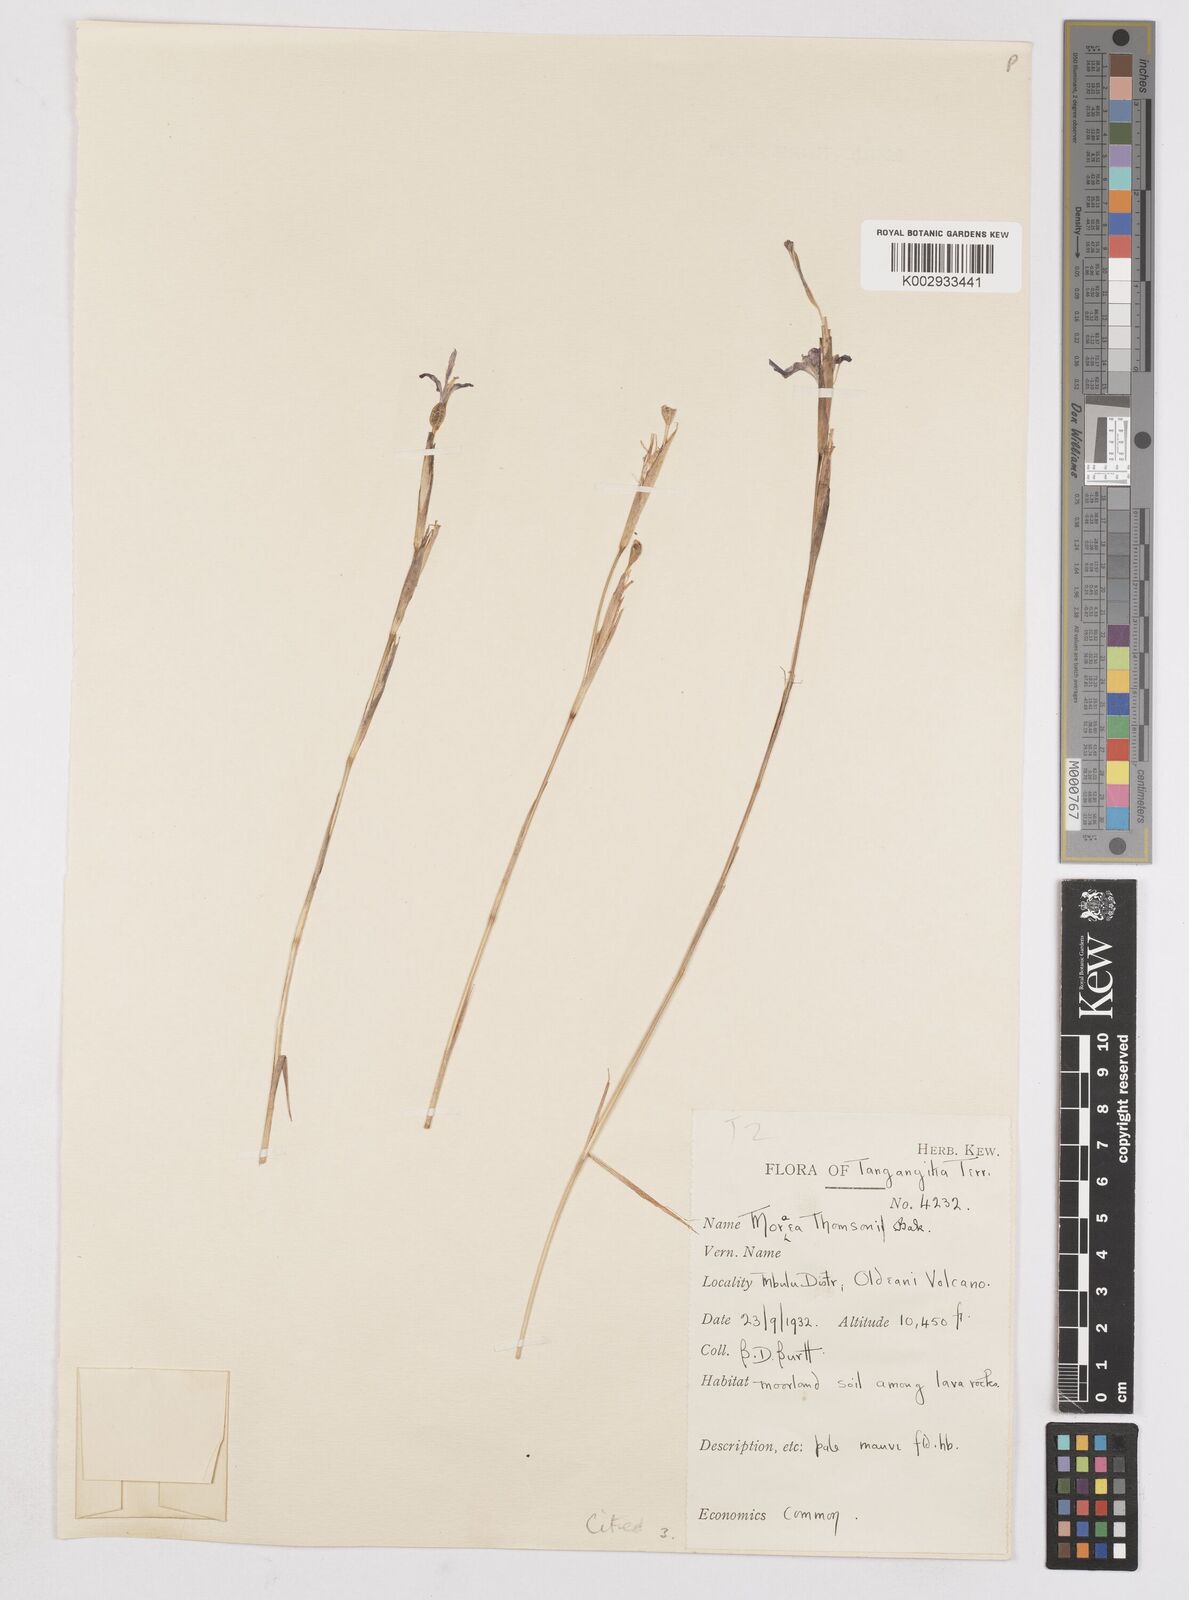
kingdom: Plantae
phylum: Tracheophyta
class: Liliopsida
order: Asparagales
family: Iridaceae
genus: Moraea
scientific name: Moraea stricta
